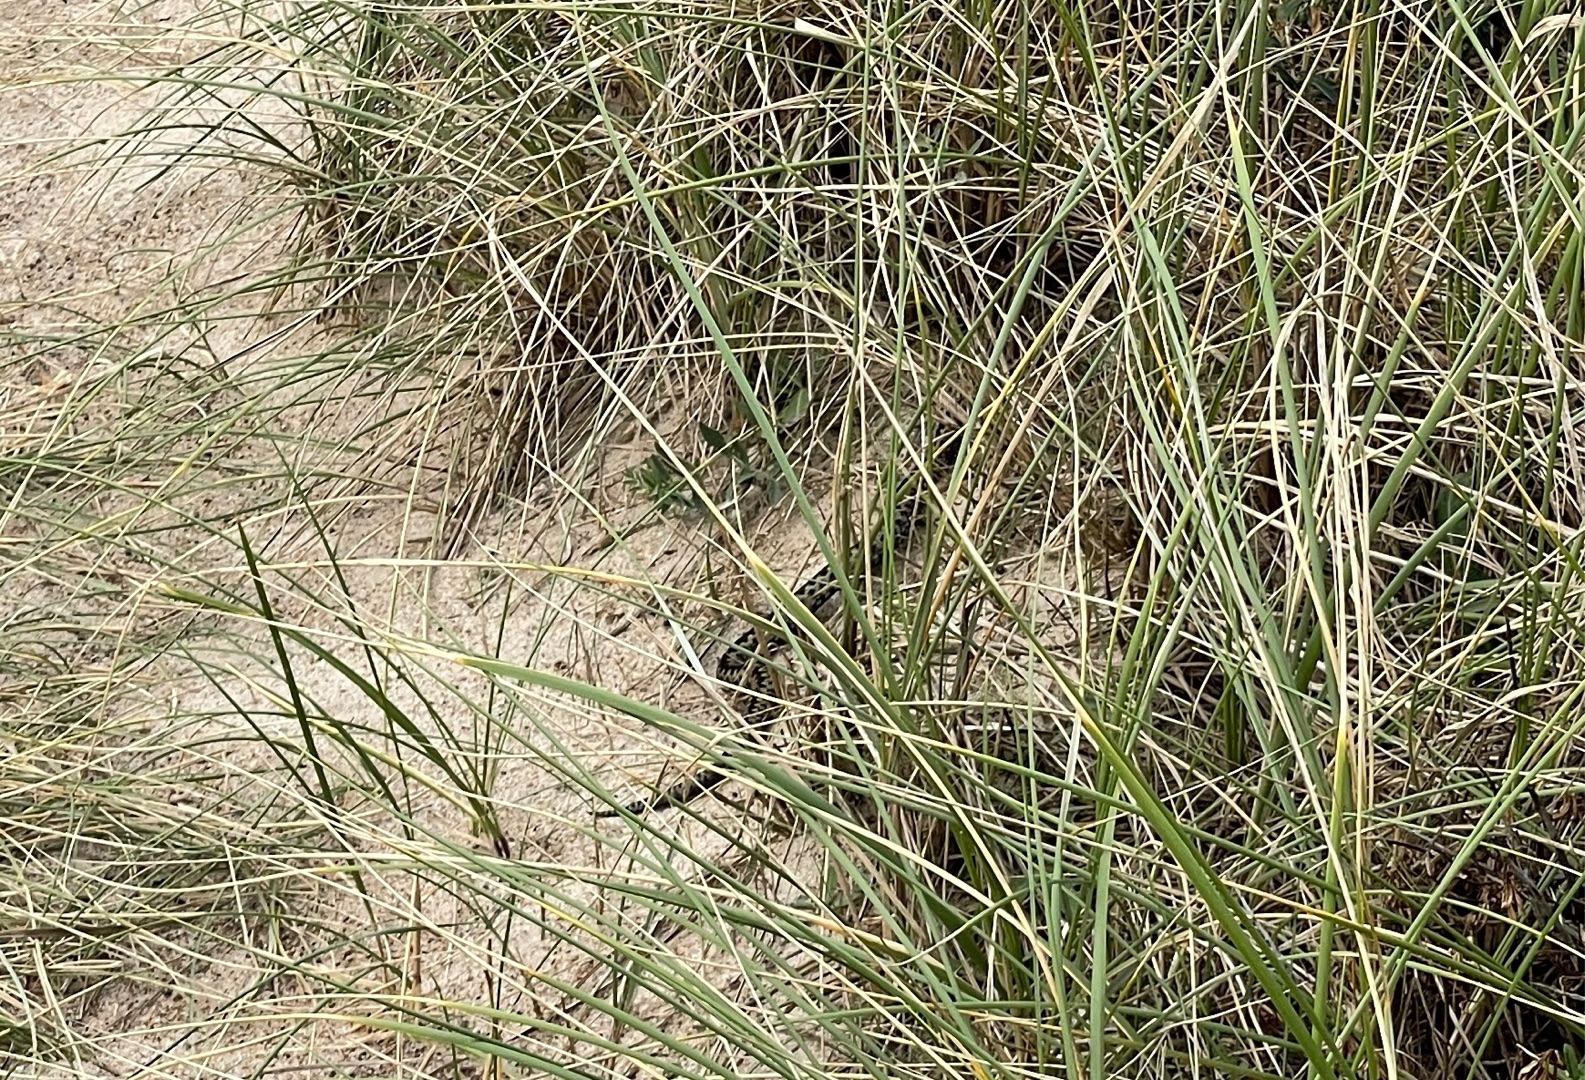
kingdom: Animalia
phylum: Chordata
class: Squamata
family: Viperidae
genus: Vipera
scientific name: Vipera berus
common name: Hugorm
